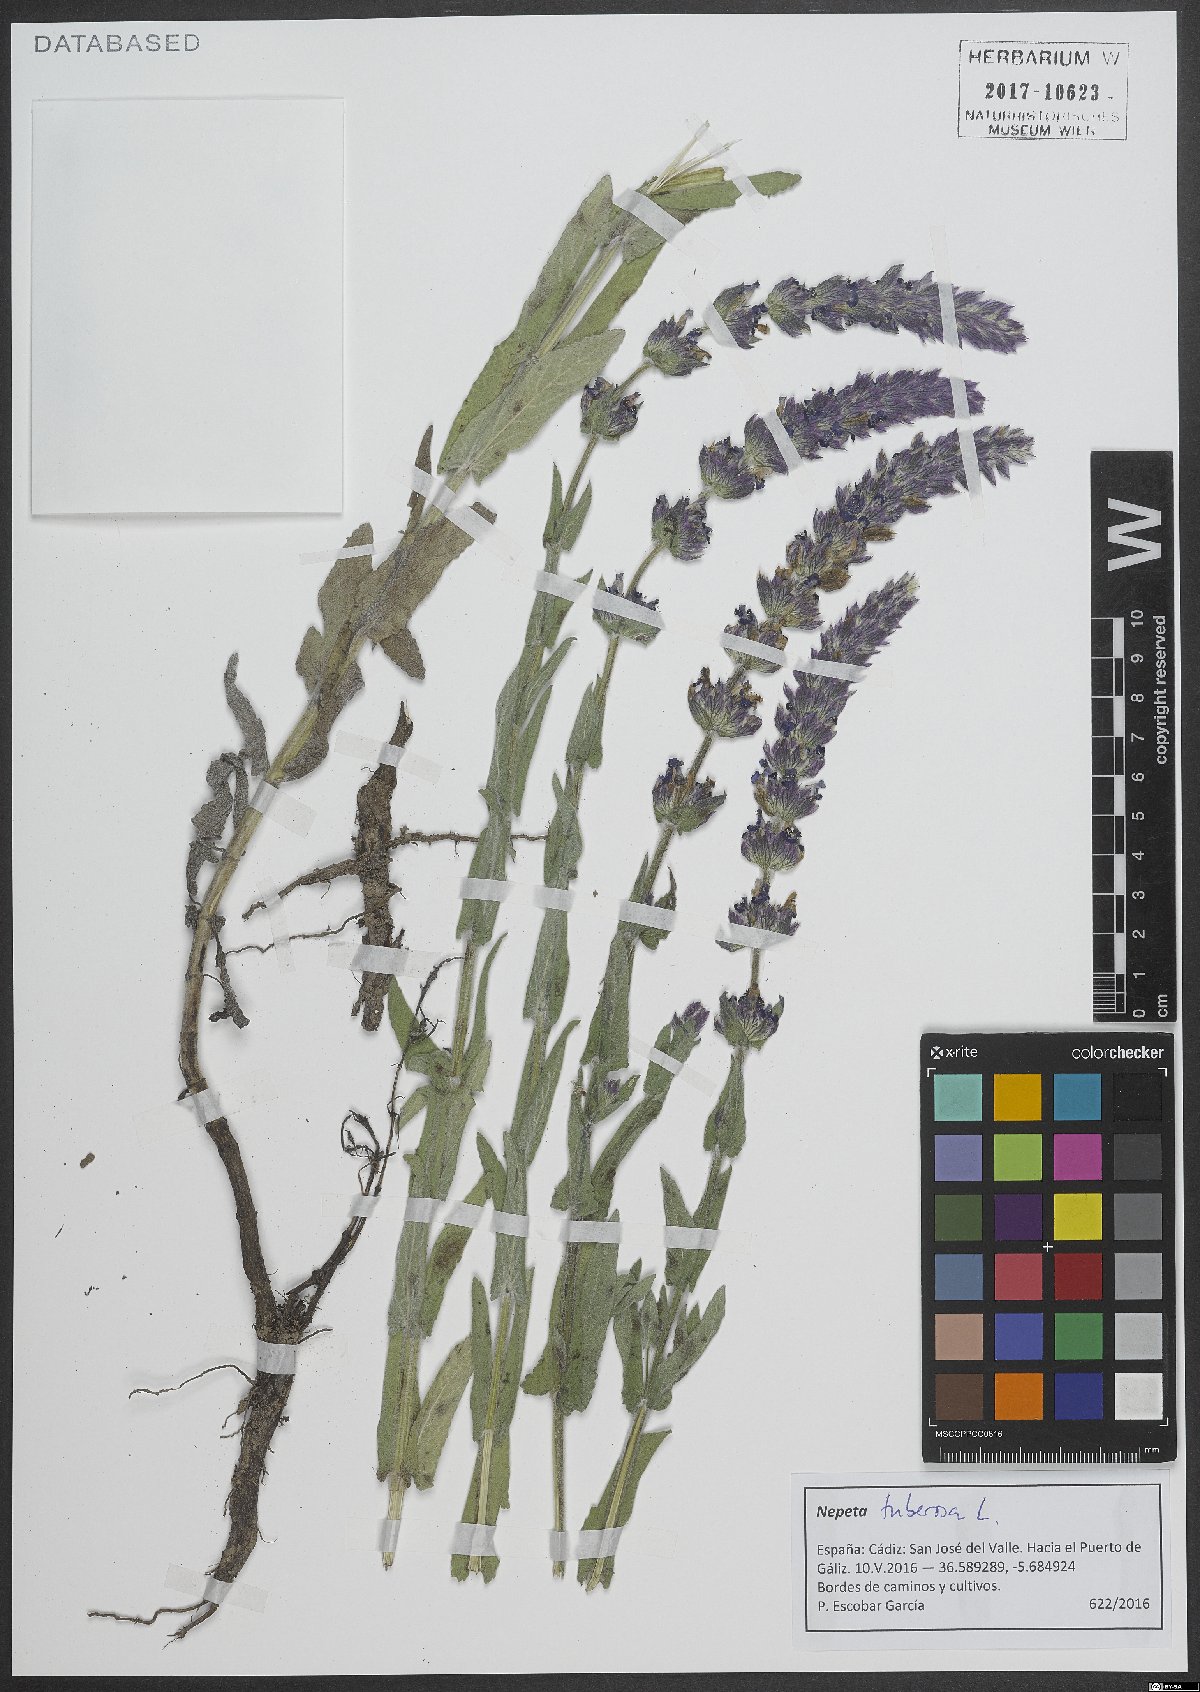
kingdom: Plantae
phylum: Tracheophyta
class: Magnoliopsida
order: Lamiales
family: Lamiaceae
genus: Nepeta
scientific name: Nepeta tuberosa
